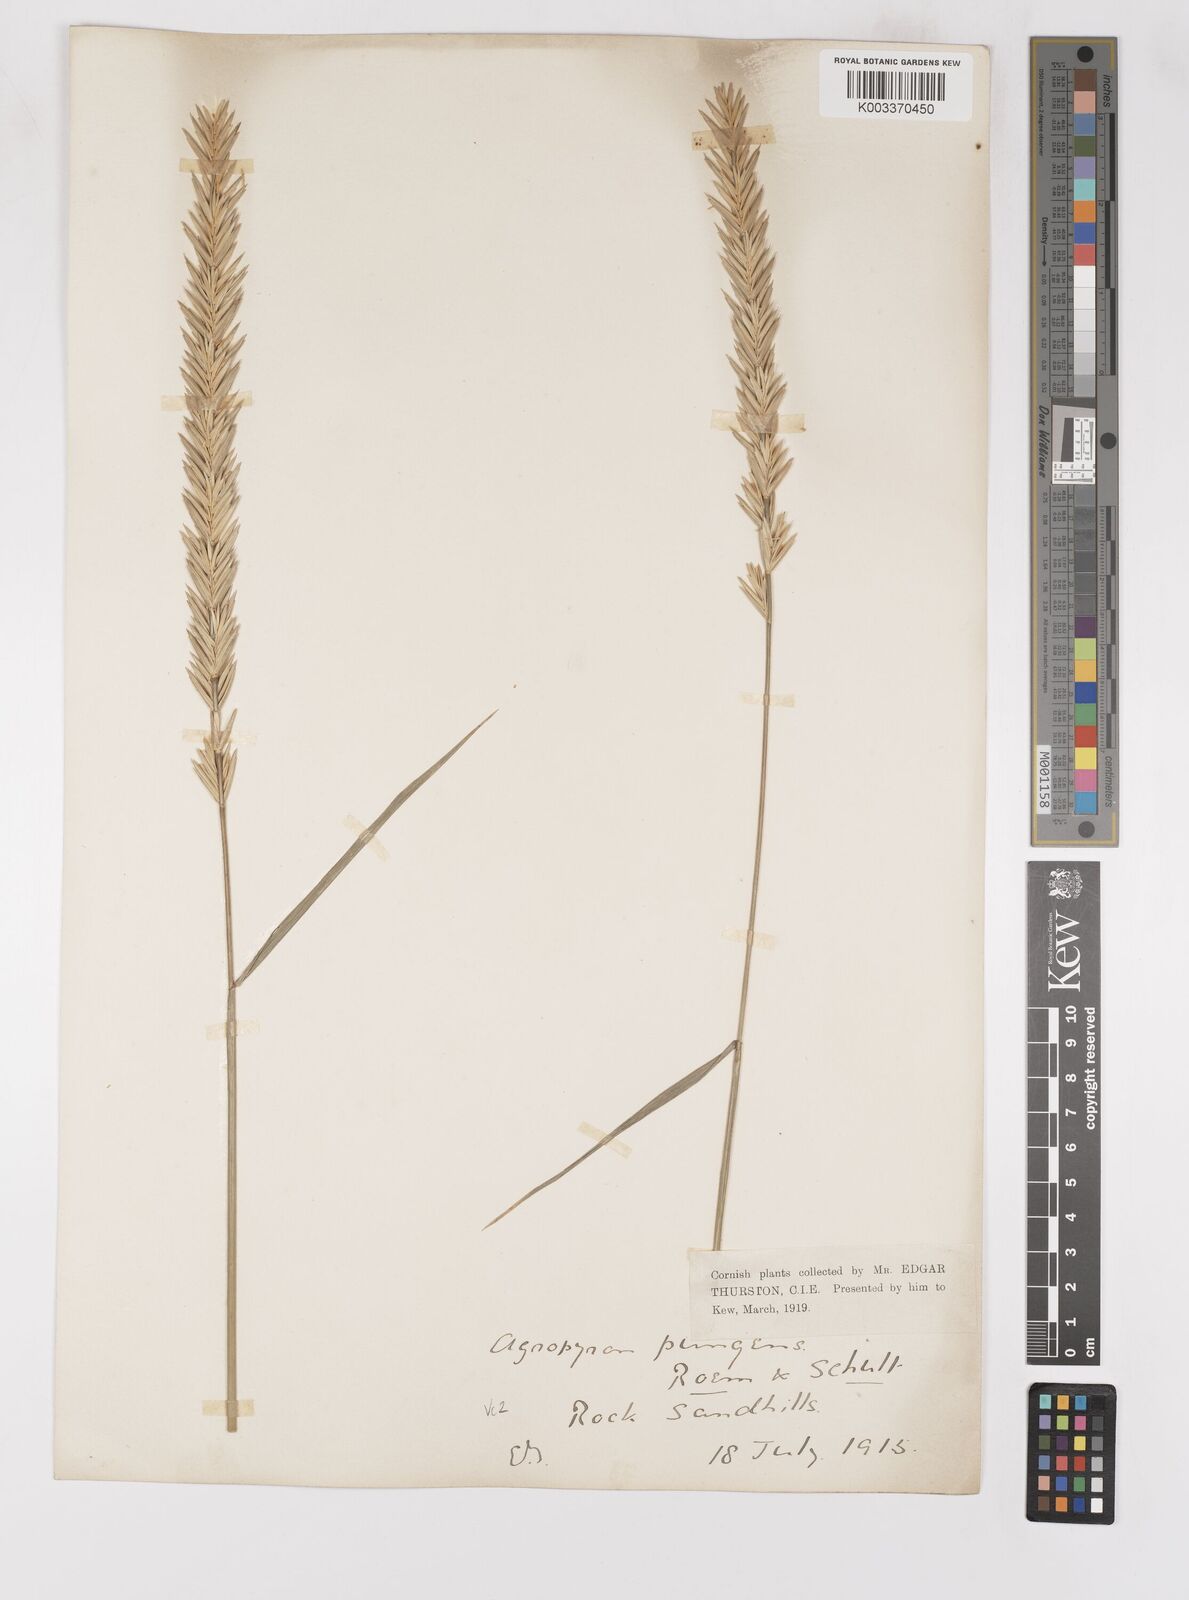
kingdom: Plantae
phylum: Tracheophyta
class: Liliopsida
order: Poales
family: Poaceae
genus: Thinoelymus
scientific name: Thinoelymus obtusiusculus
